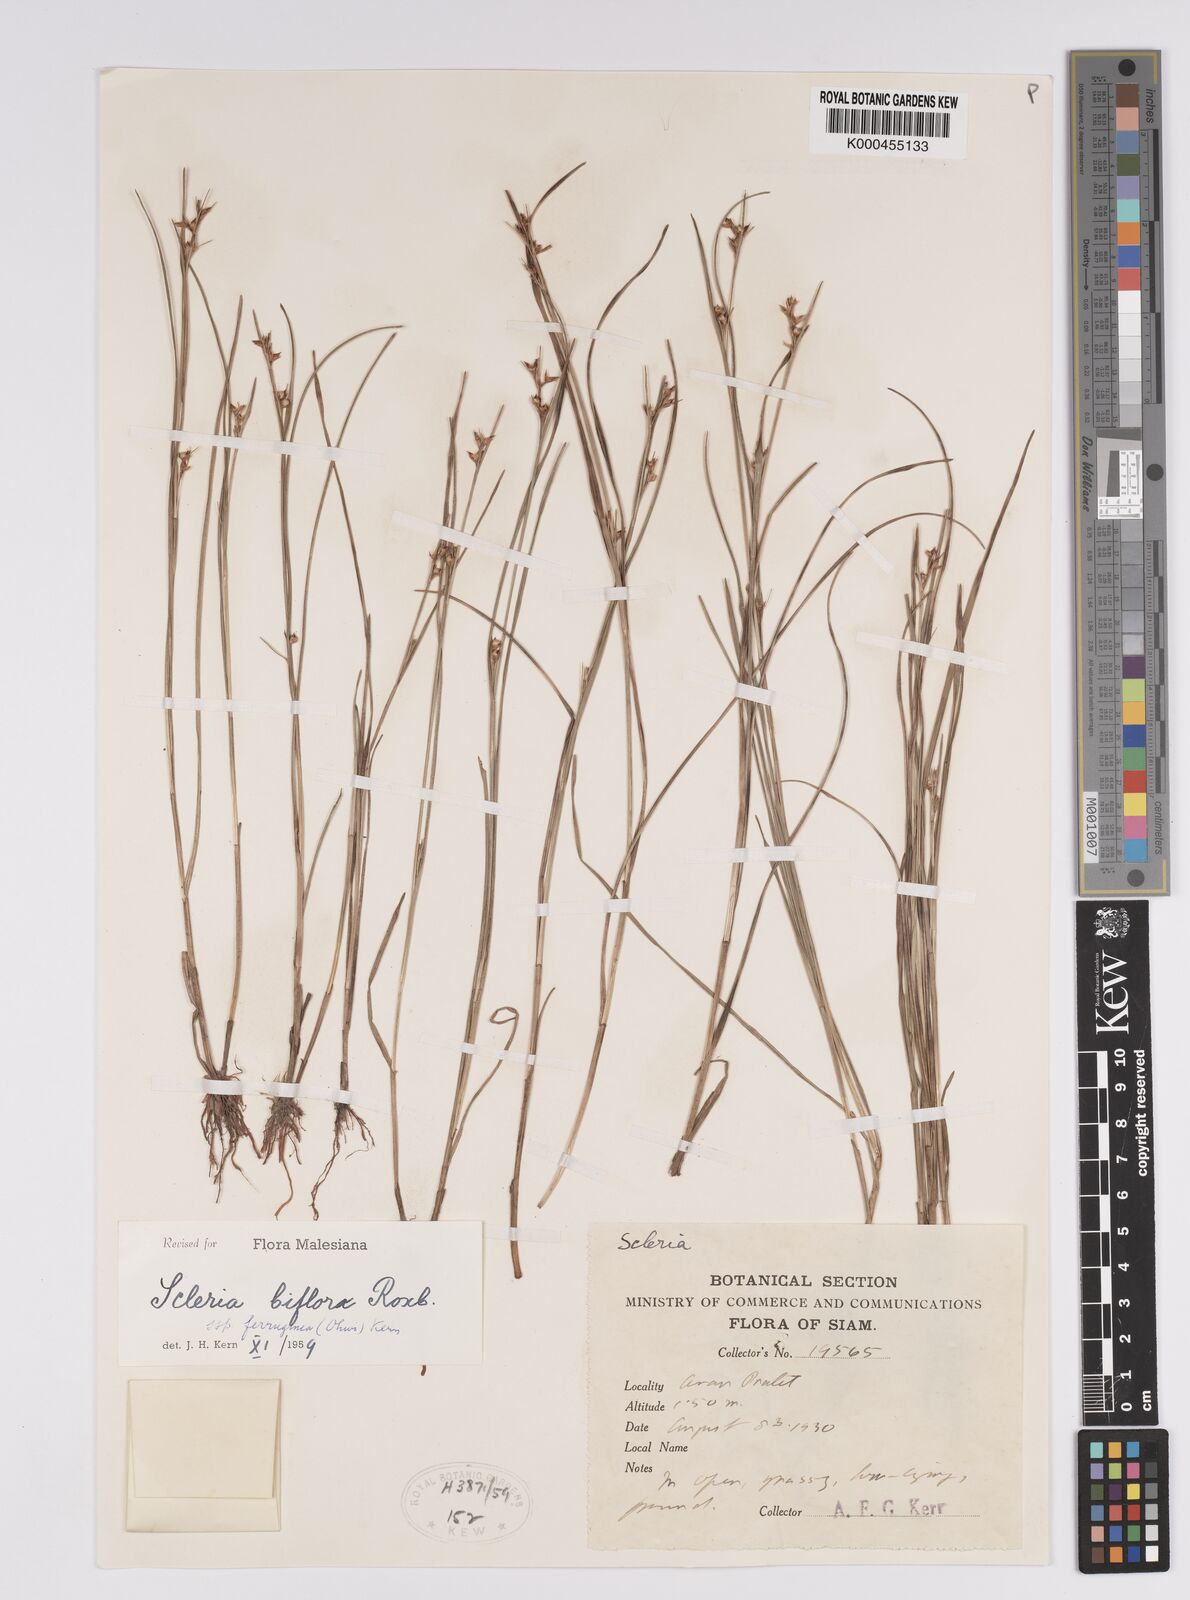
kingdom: Plantae
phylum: Tracheophyta
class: Liliopsida
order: Poales
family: Cyperaceae
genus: Scleria
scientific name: Scleria biflora
